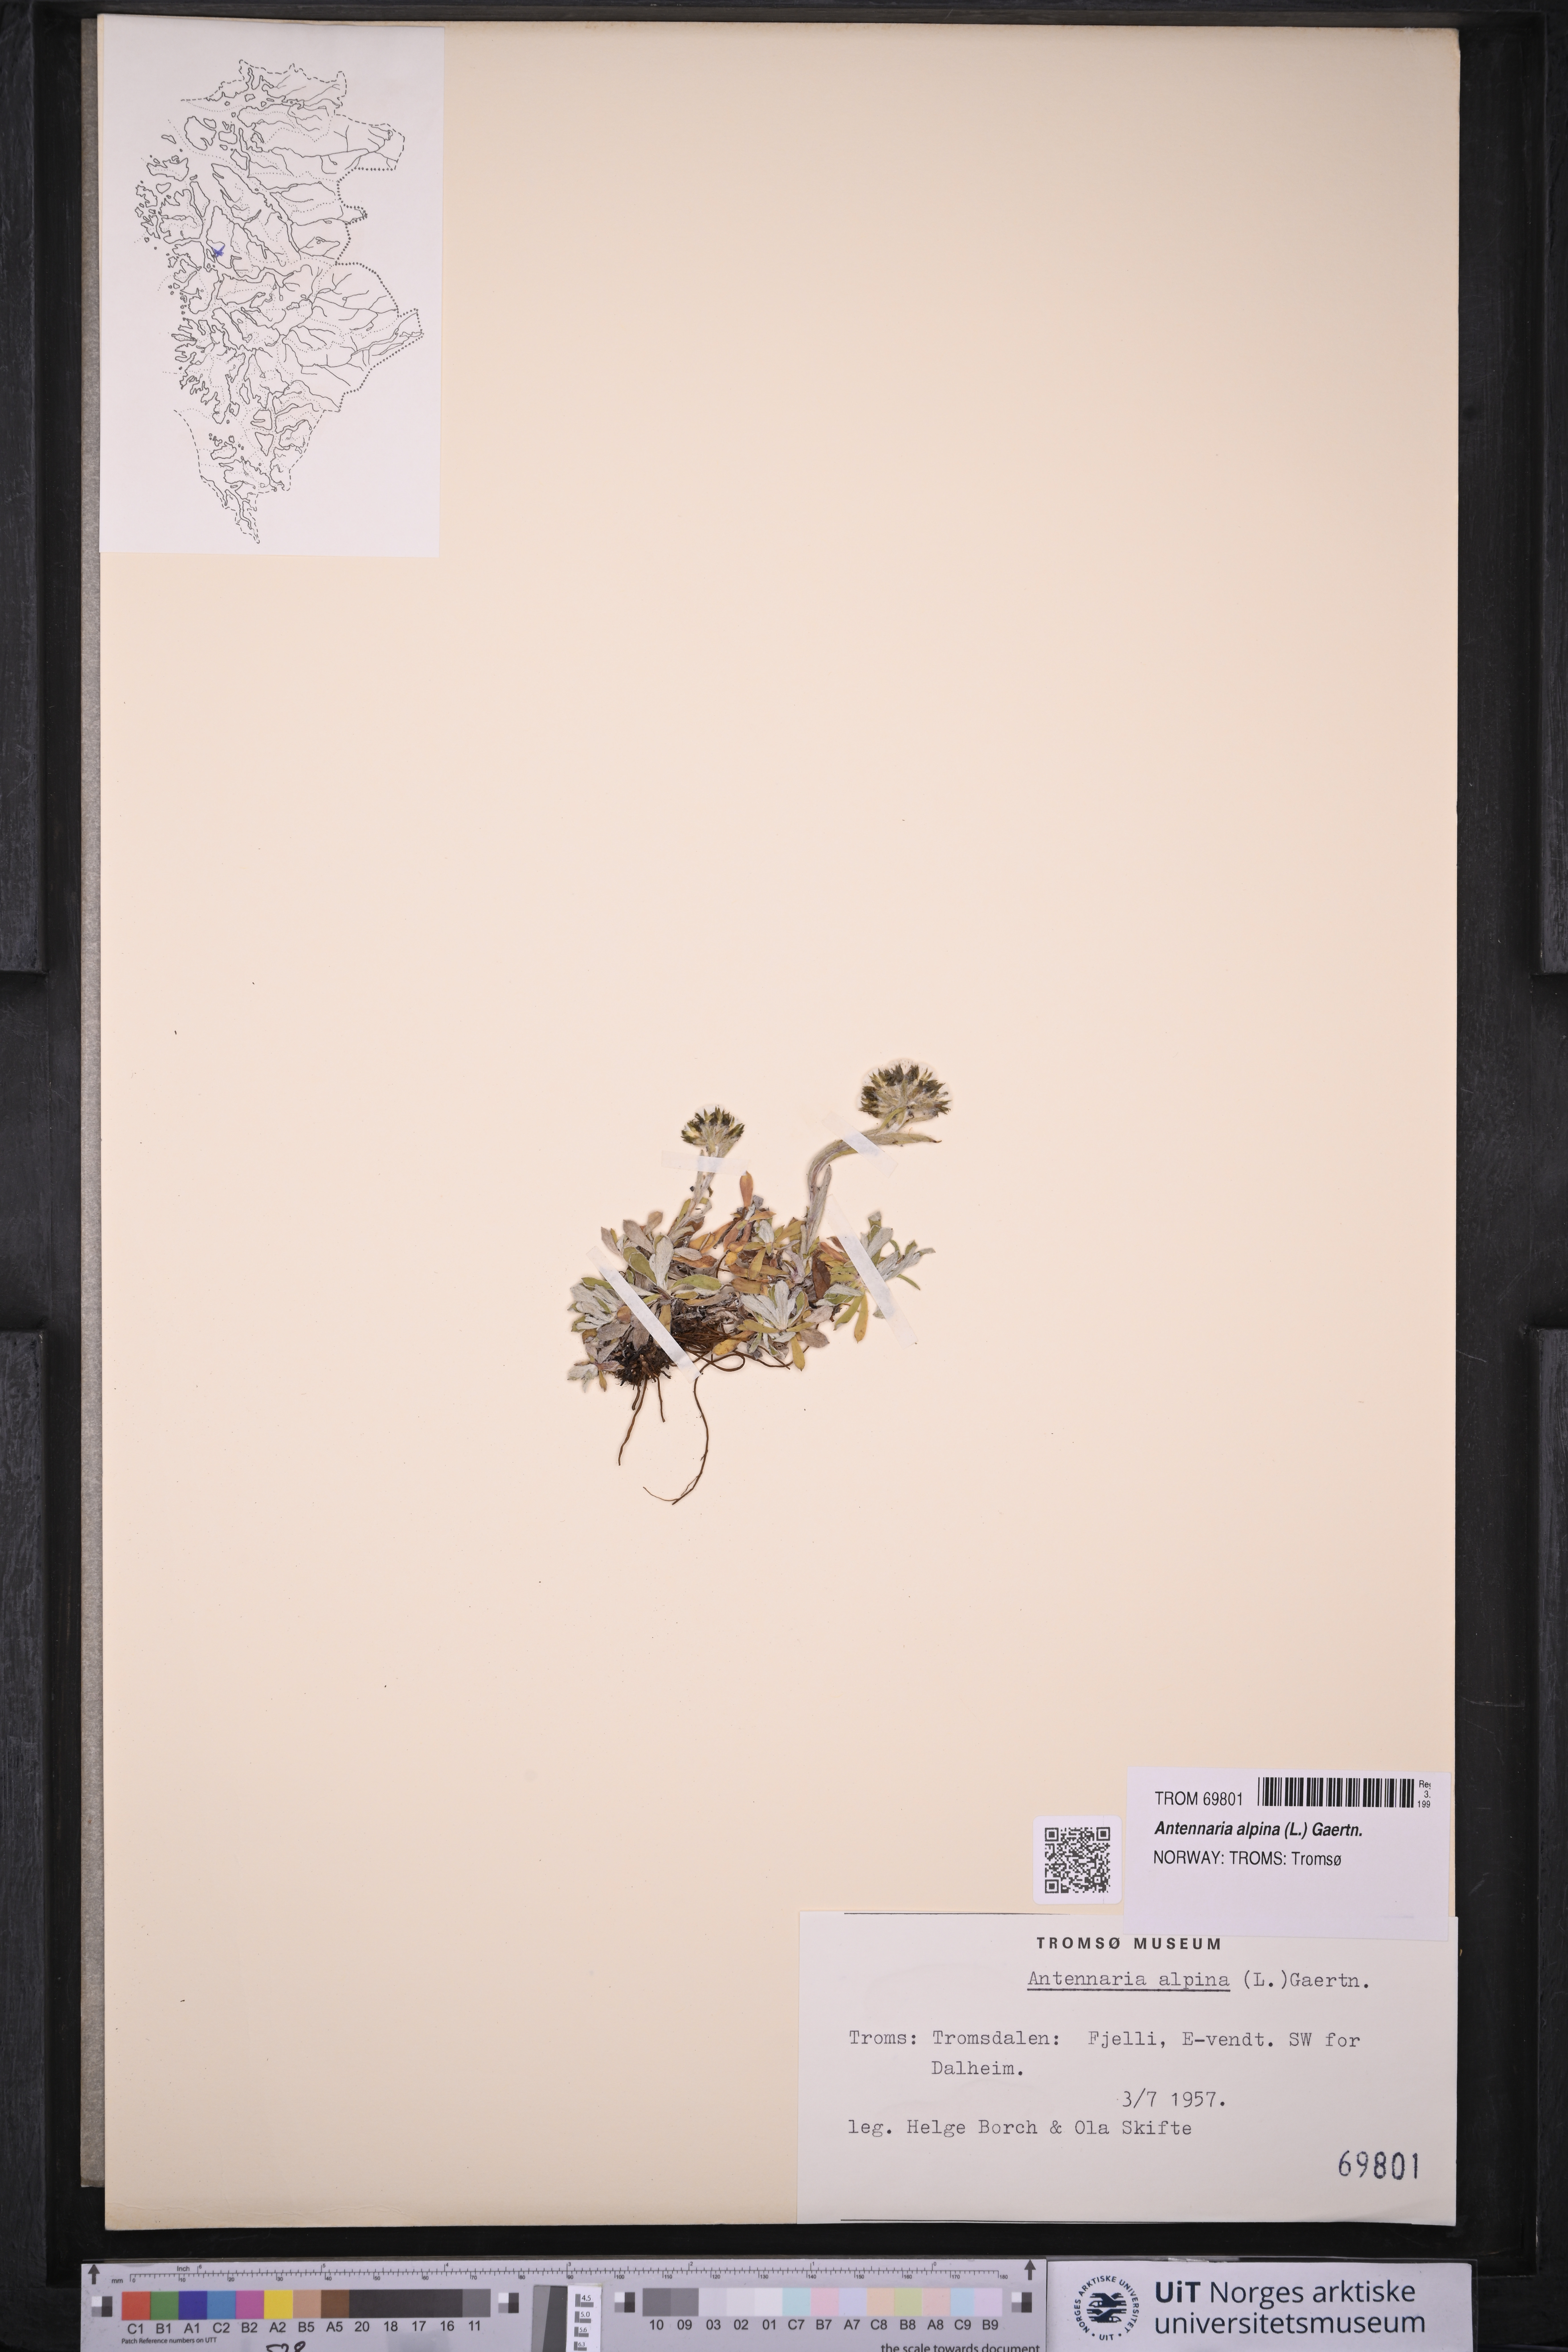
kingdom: Plantae
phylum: Tracheophyta
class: Magnoliopsida
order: Asterales
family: Asteraceae
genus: Antennaria
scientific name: Antennaria alpina
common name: Alpine pussytoes
